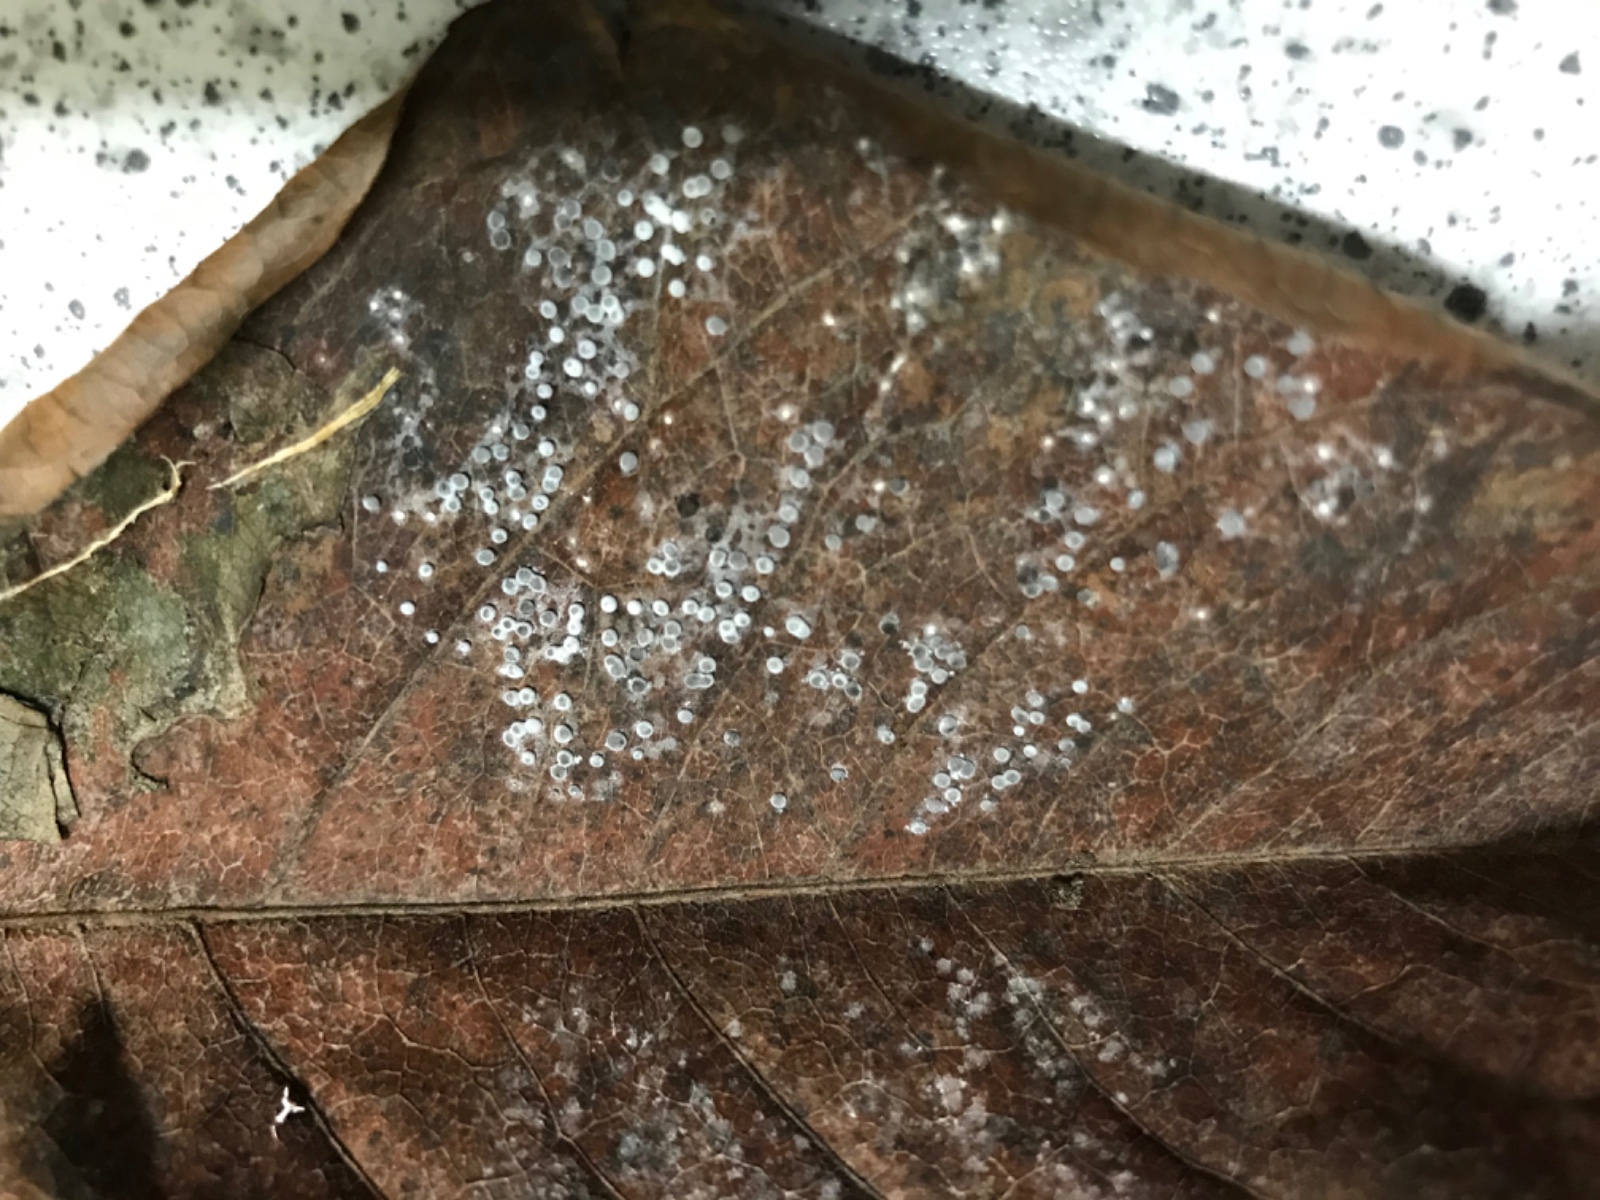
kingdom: Protozoa
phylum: Mycetozoa
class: Myxomycetes
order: Physarales
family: Didymiaceae
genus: Didymium
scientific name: Didymium squamulosum
